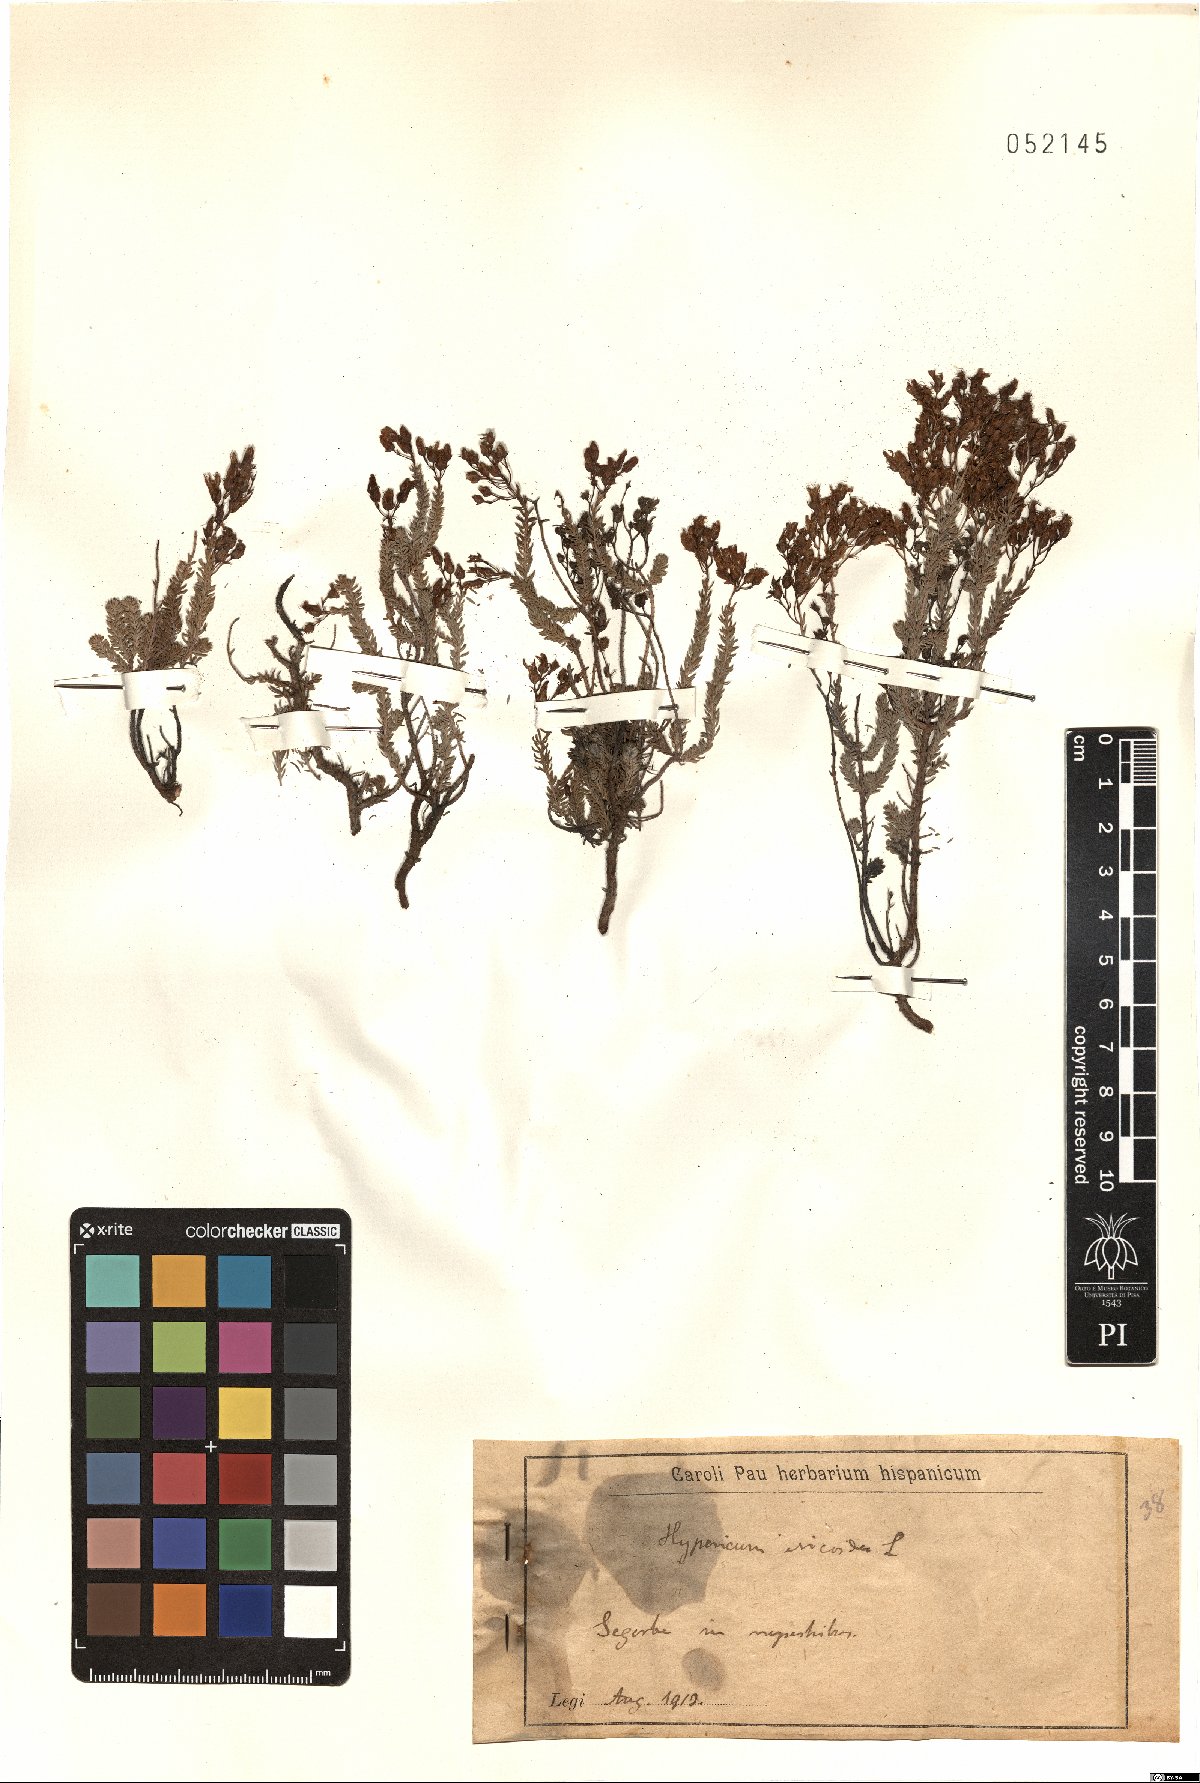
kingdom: Plantae
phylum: Tracheophyta
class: Magnoliopsida
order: Malpighiales
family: Hypericaceae
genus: Hypericum
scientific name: Hypericum ericoides
